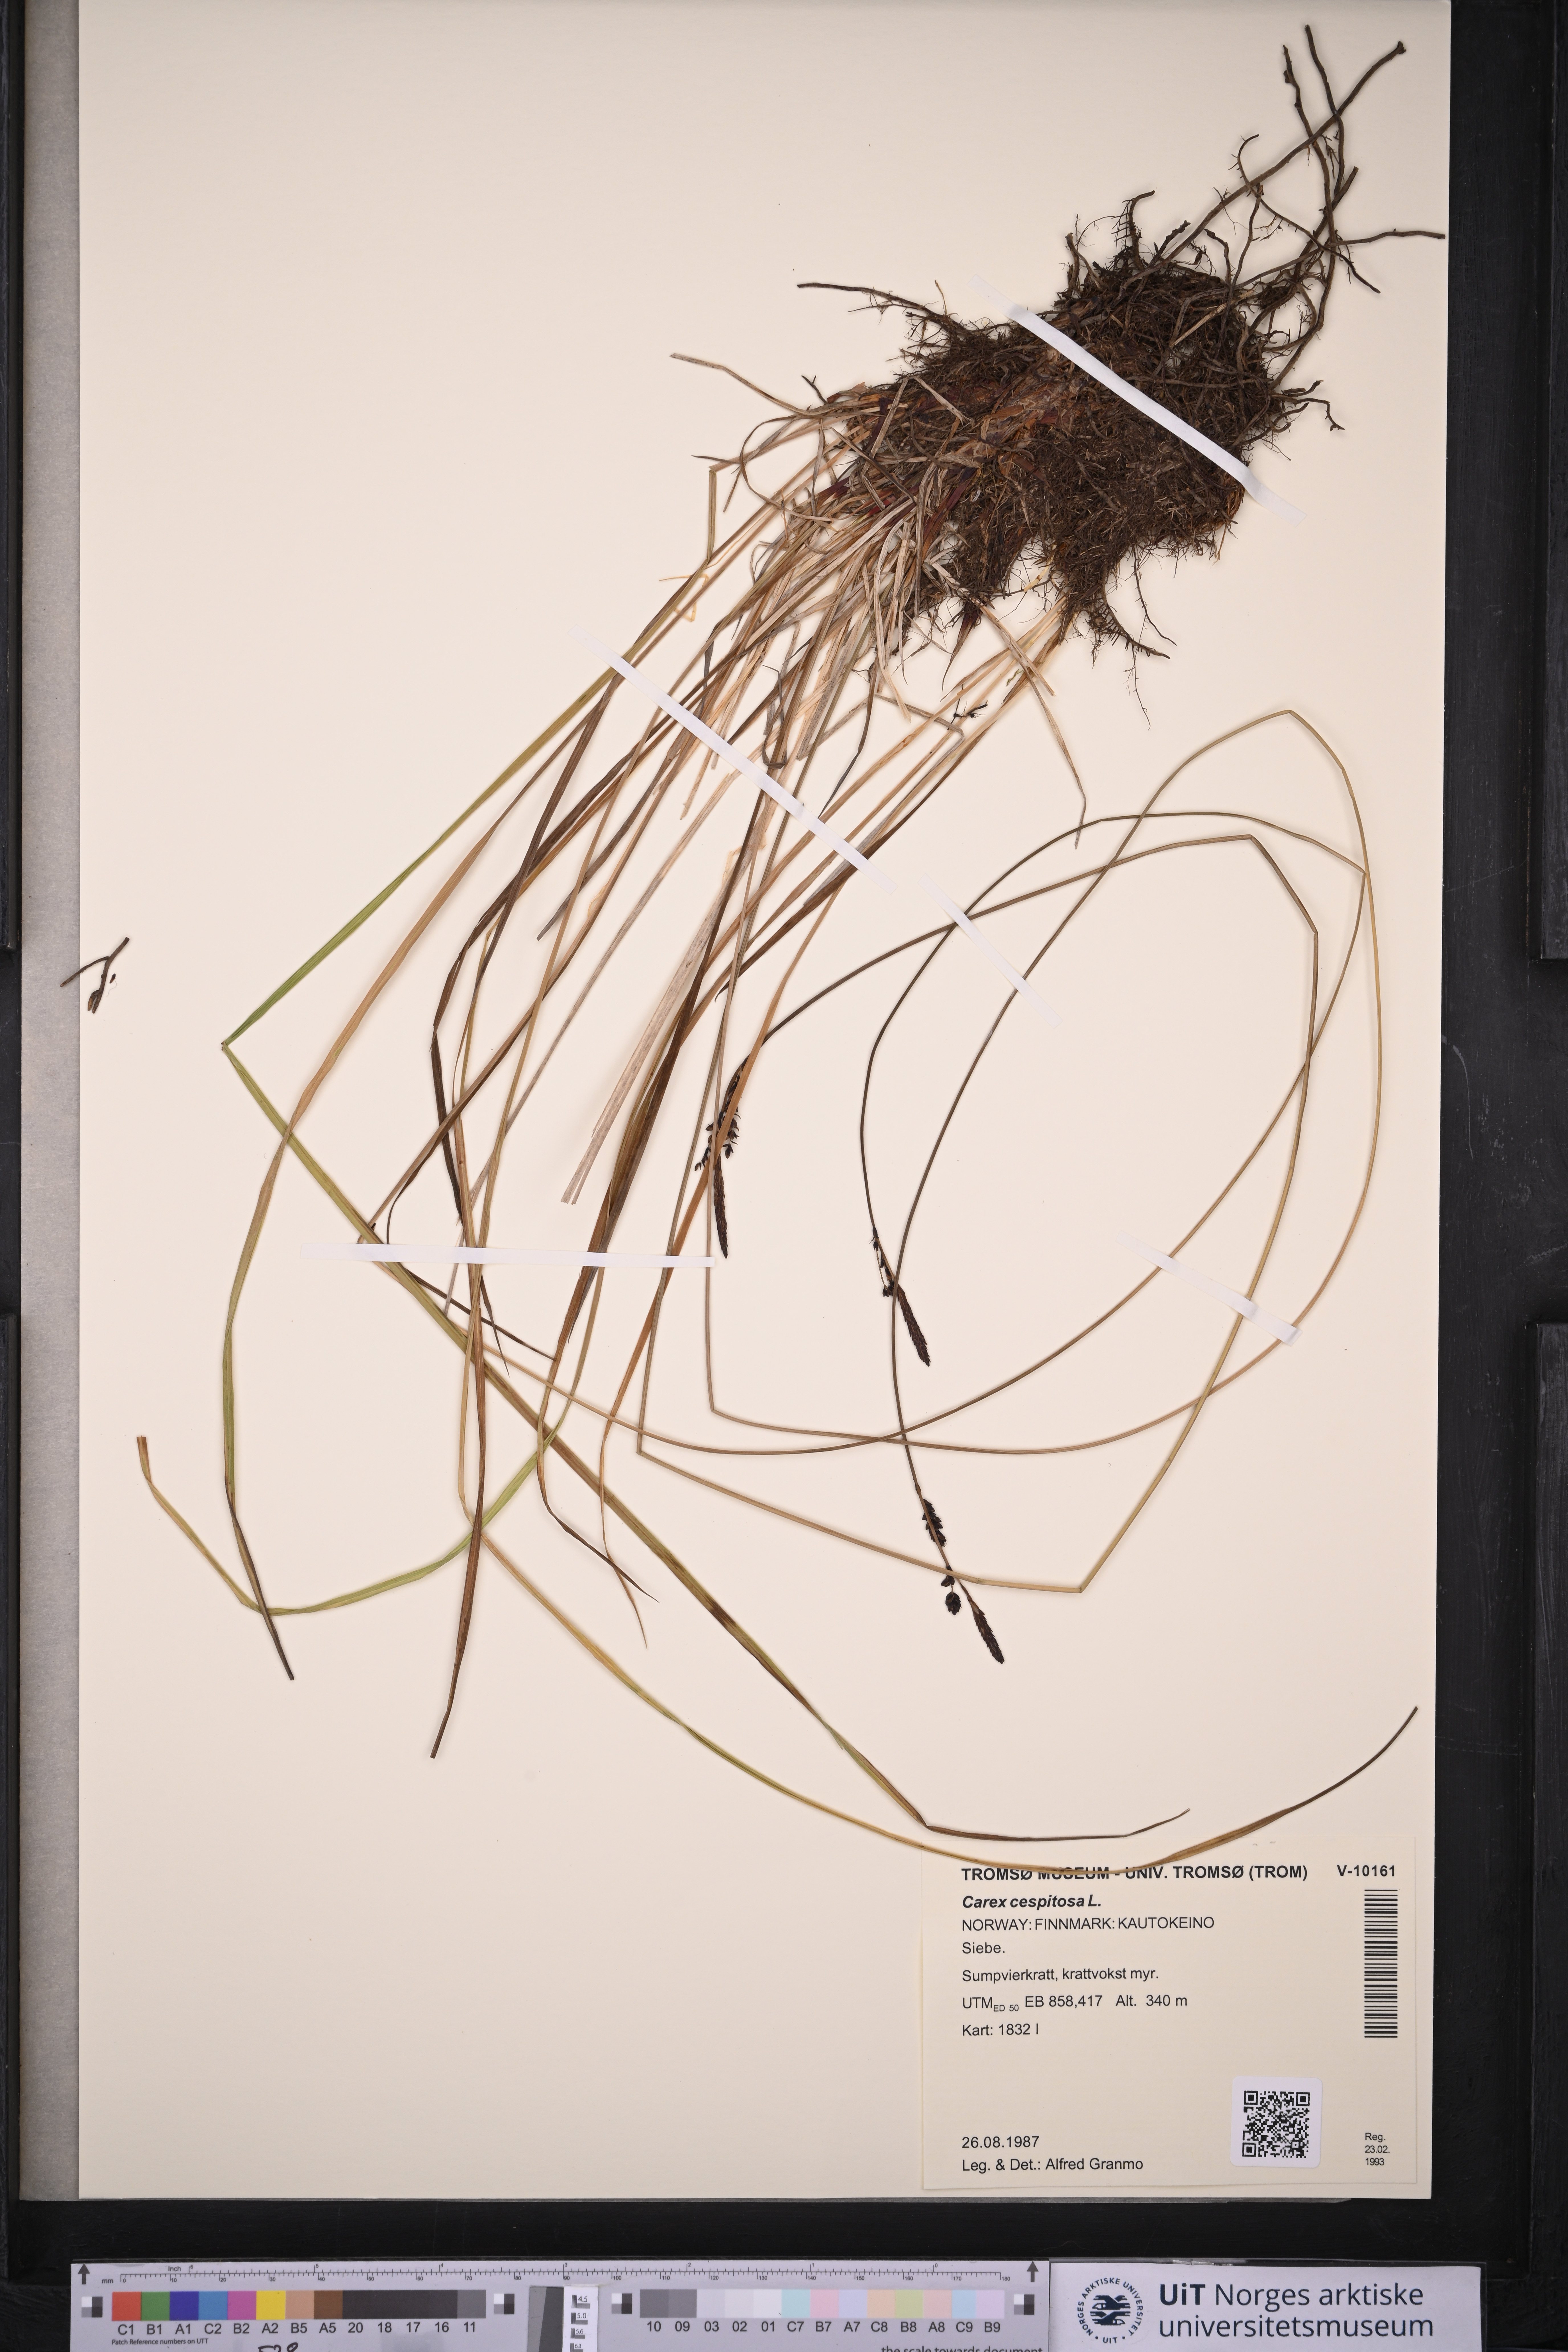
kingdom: Plantae
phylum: Tracheophyta
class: Liliopsida
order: Poales
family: Cyperaceae
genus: Carex
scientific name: Carex cespitosa
